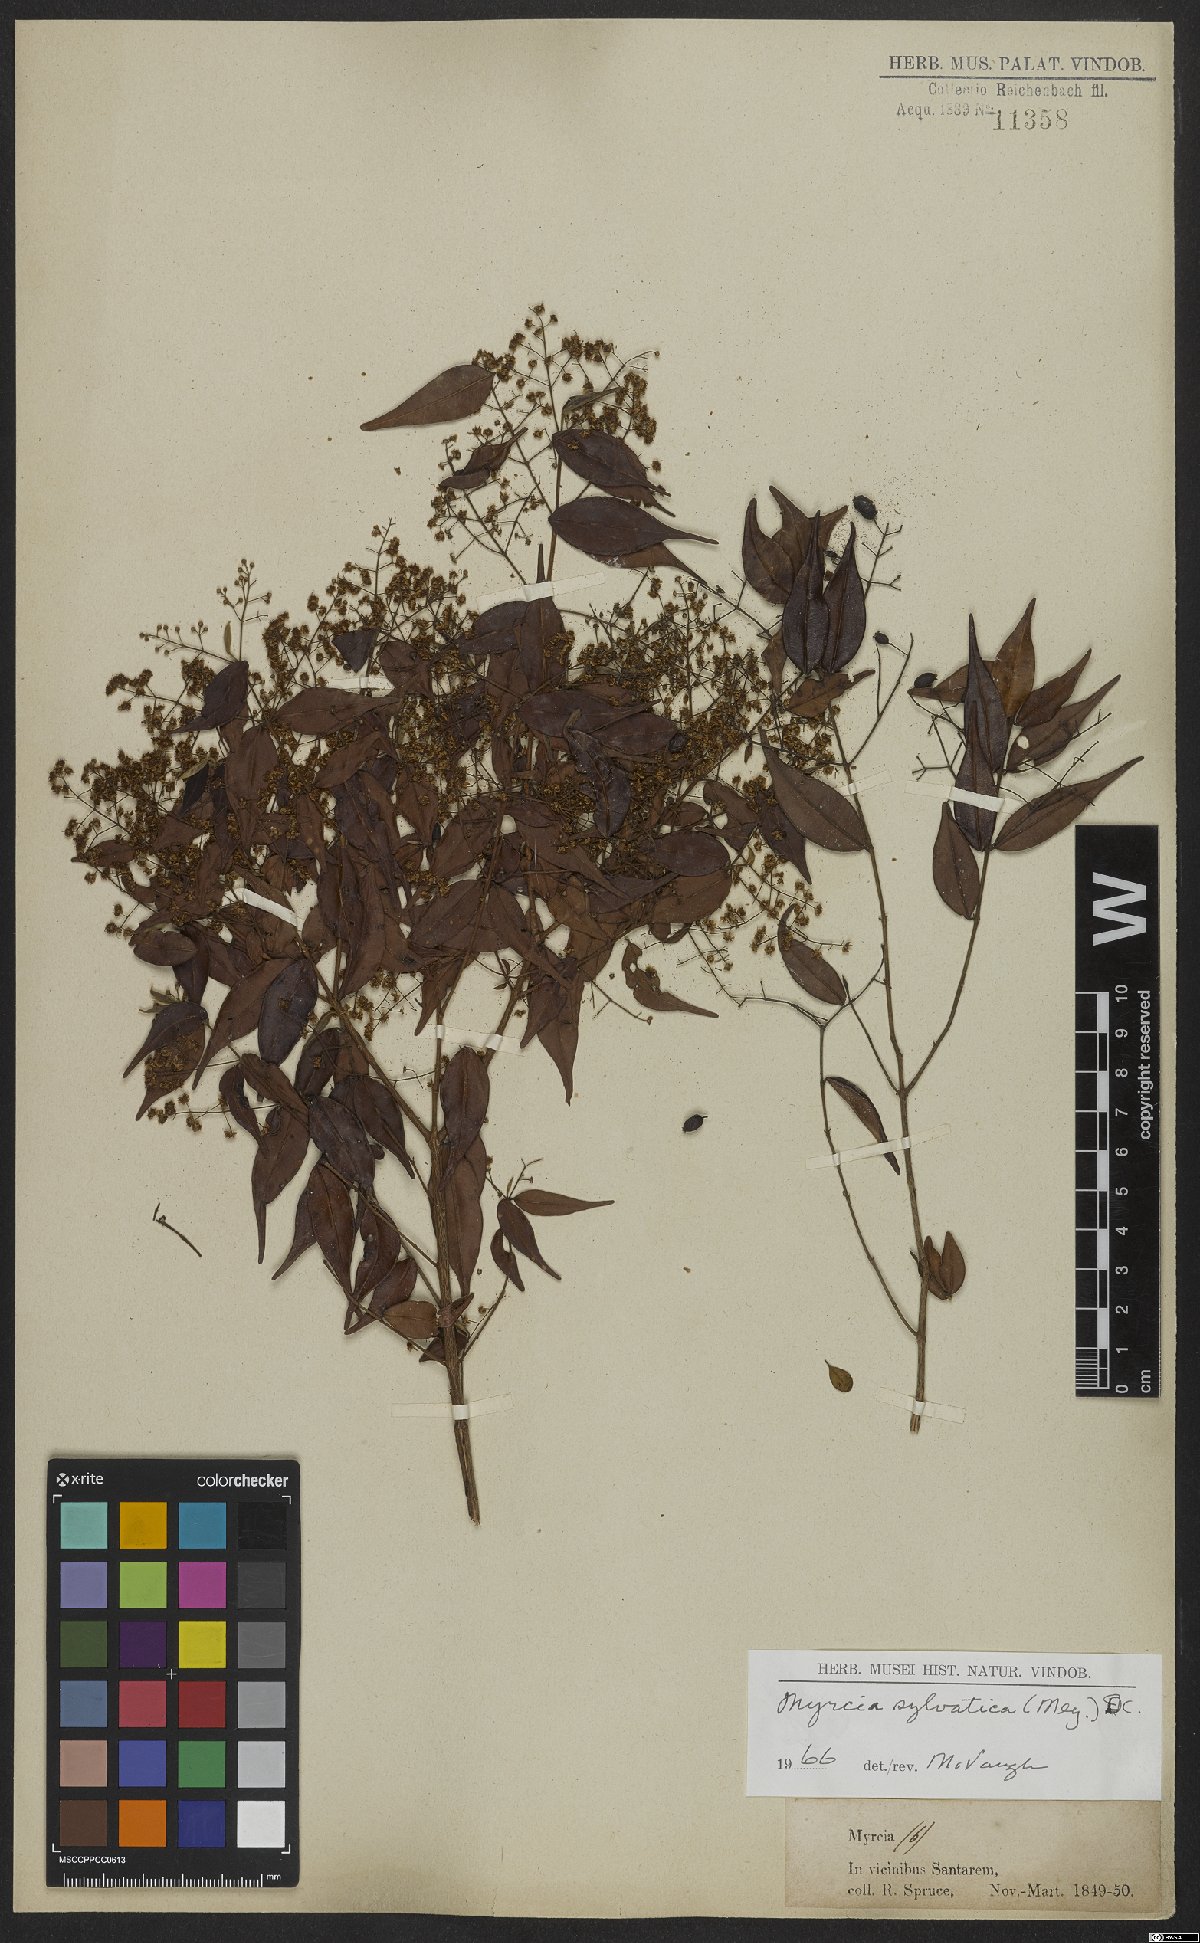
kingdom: Plantae
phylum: Tracheophyta
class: Magnoliopsida
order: Myrtales
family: Myrtaceae
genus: Myrcia
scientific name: Myrcia sylvatica
